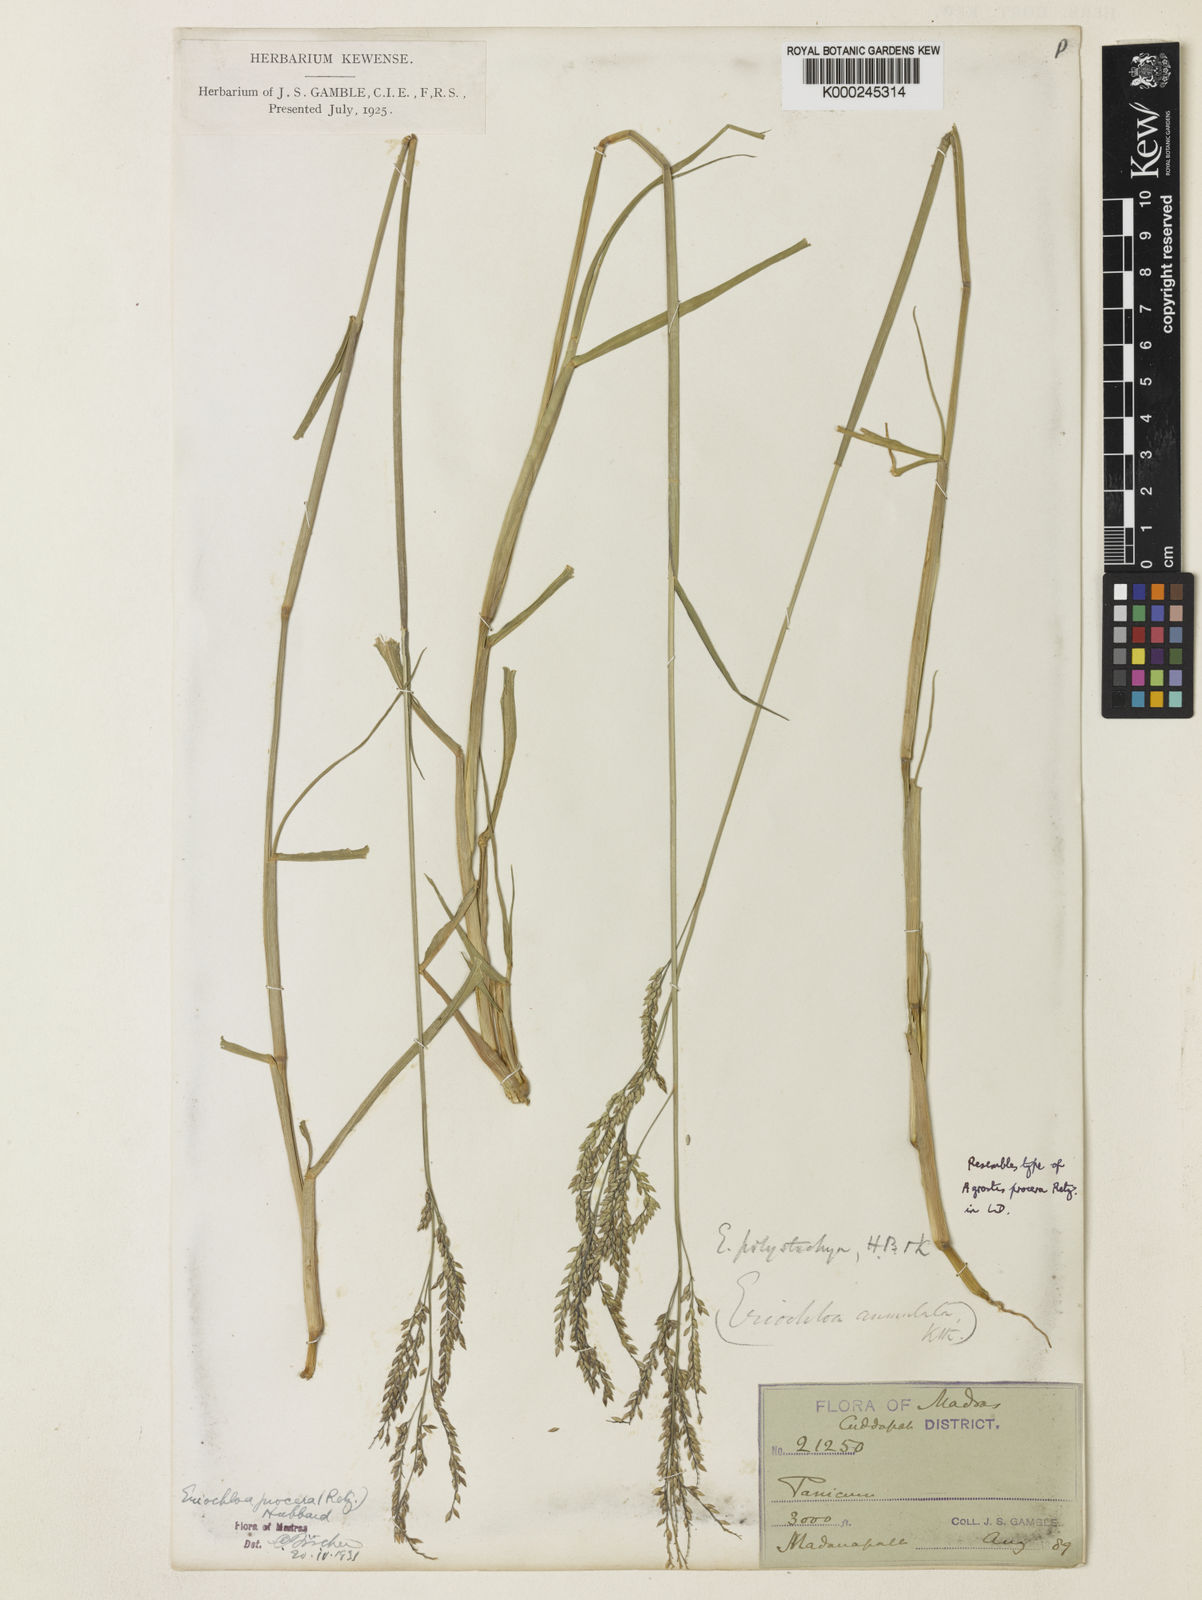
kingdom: Plantae
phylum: Tracheophyta
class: Liliopsida
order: Poales
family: Poaceae
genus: Eriochloa
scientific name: Eriochloa procera
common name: Spring grass
